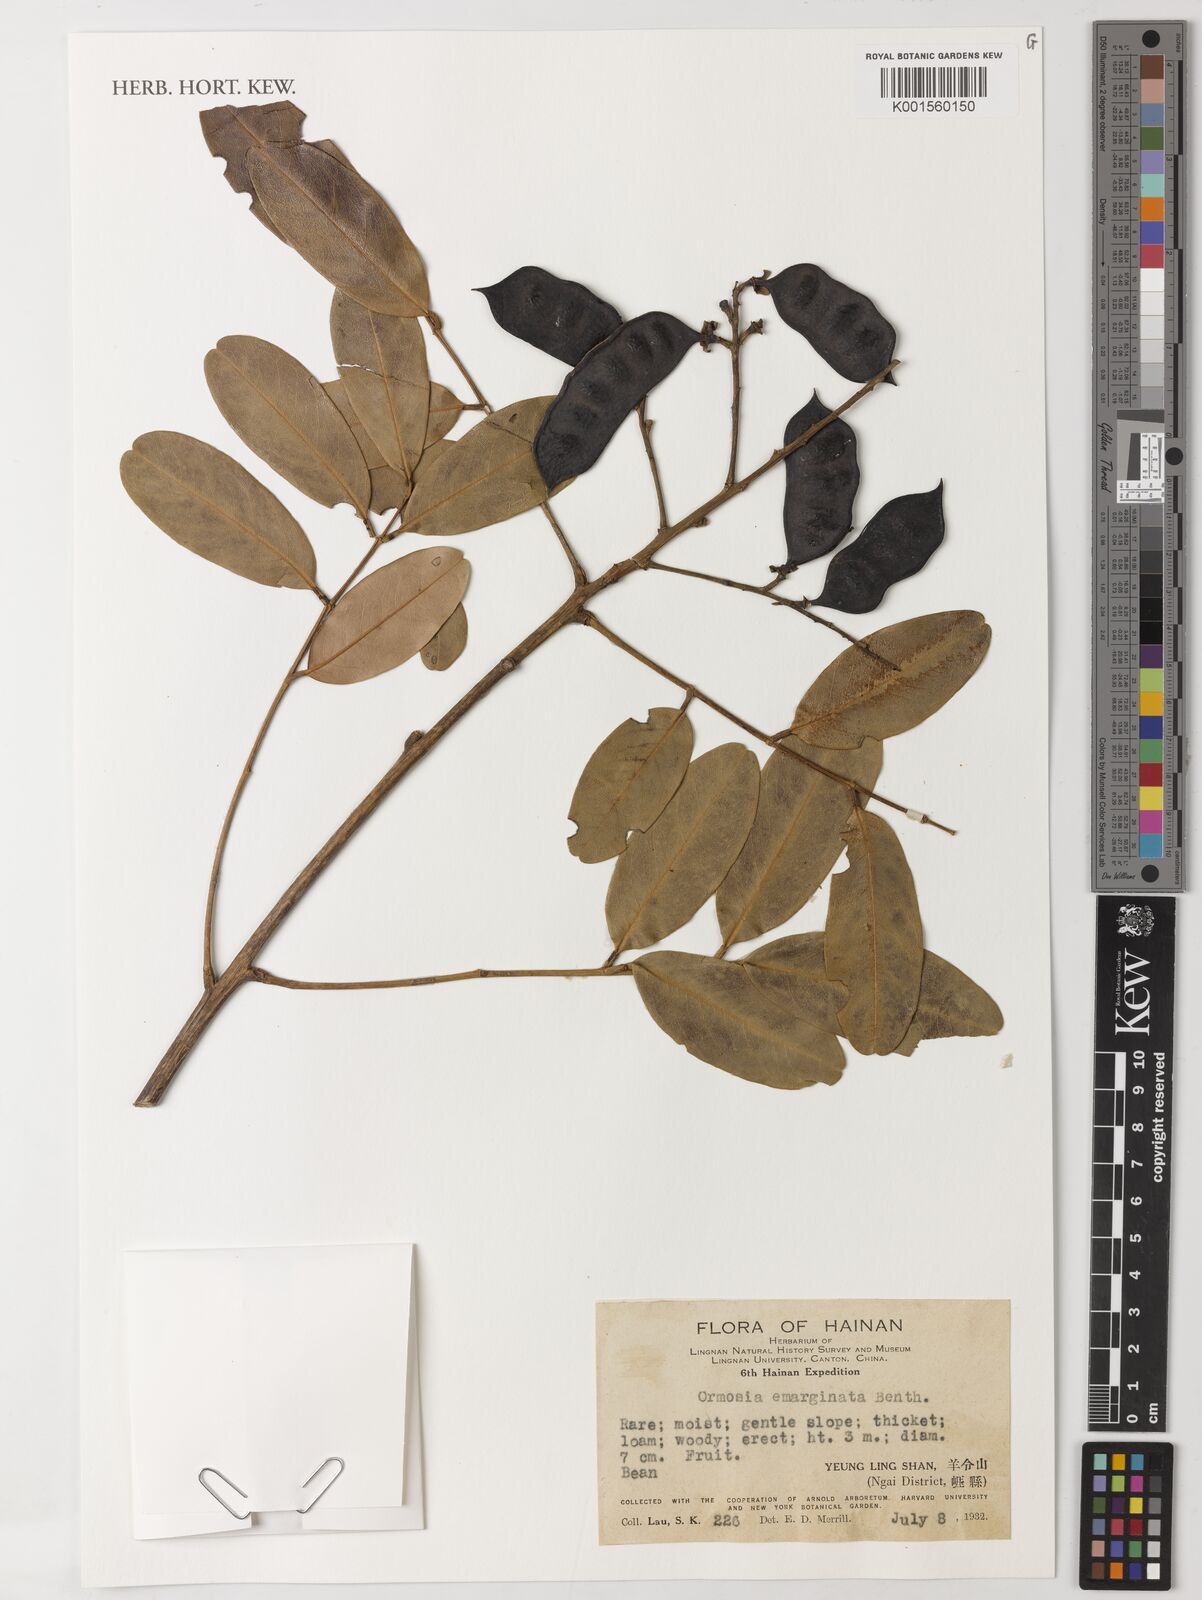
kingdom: Plantae
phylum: Tracheophyta
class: Magnoliopsida
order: Fabales
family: Fabaceae
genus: Ormosia
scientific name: Ormosia emarginata
